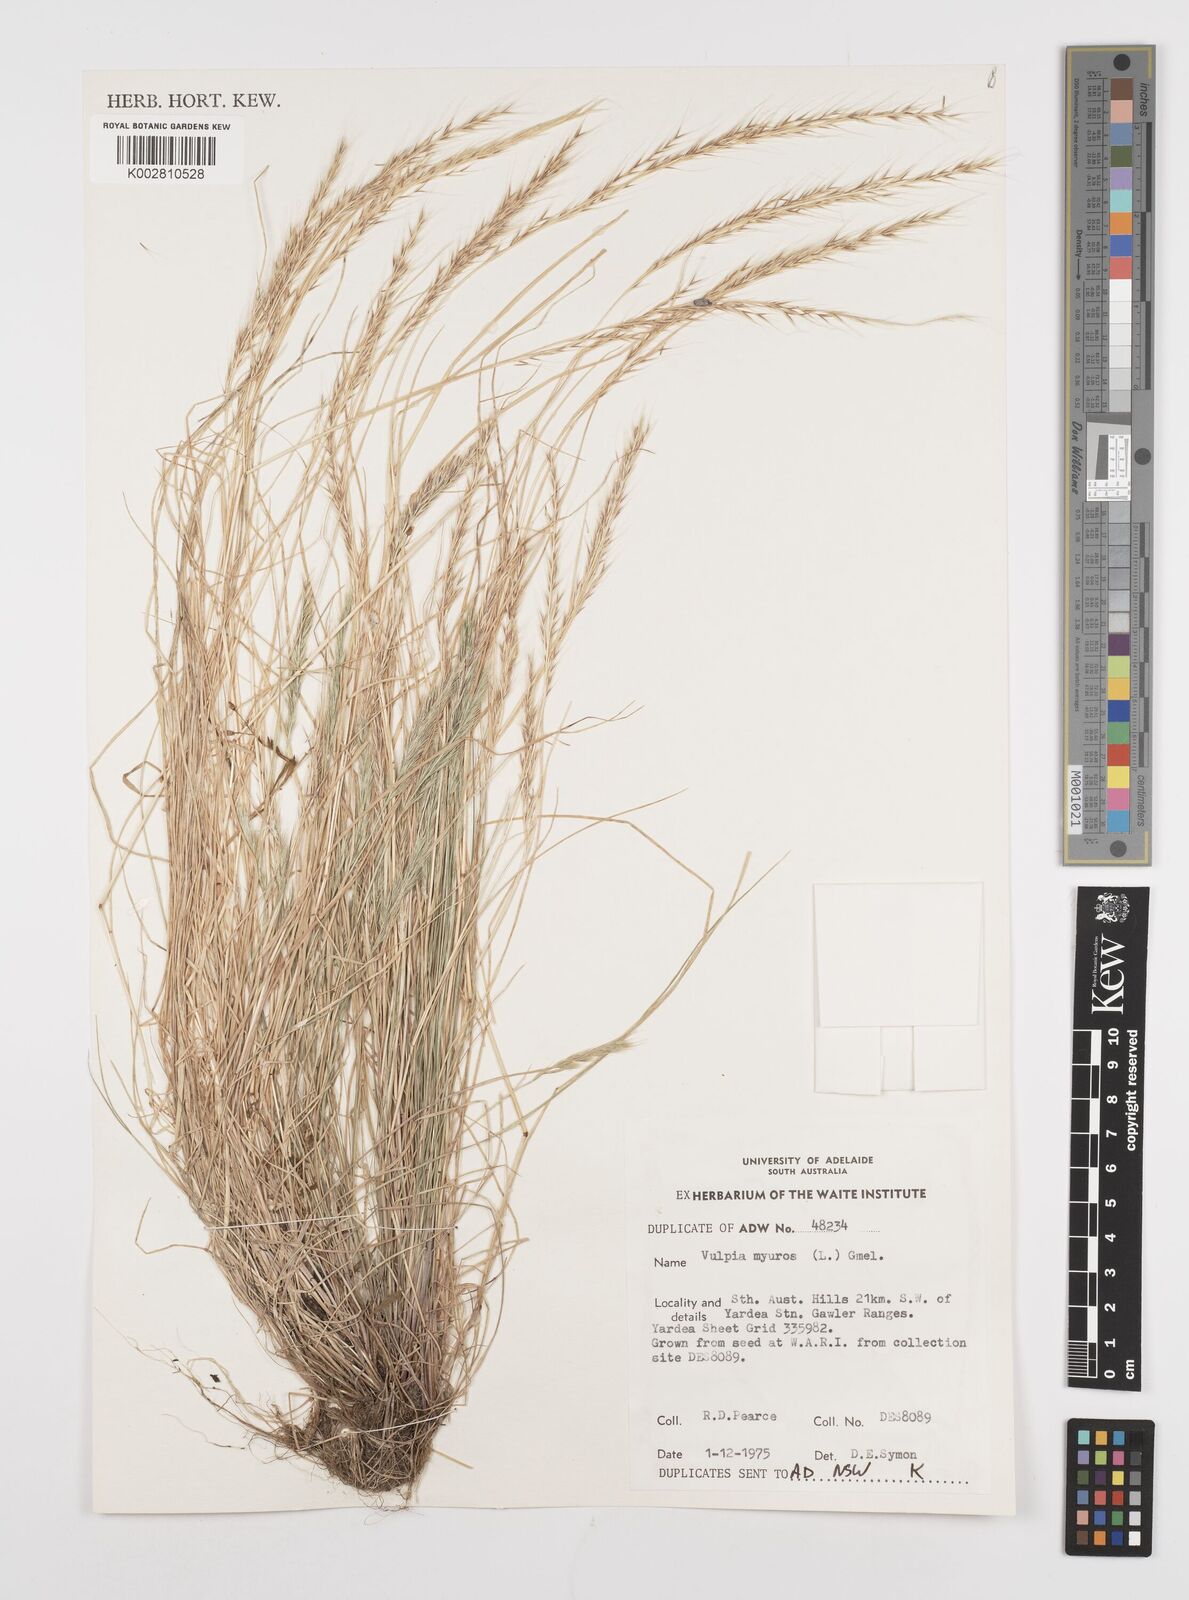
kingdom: Plantae
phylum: Tracheophyta
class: Liliopsida
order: Poales
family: Poaceae
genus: Festuca
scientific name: Festuca myuros
